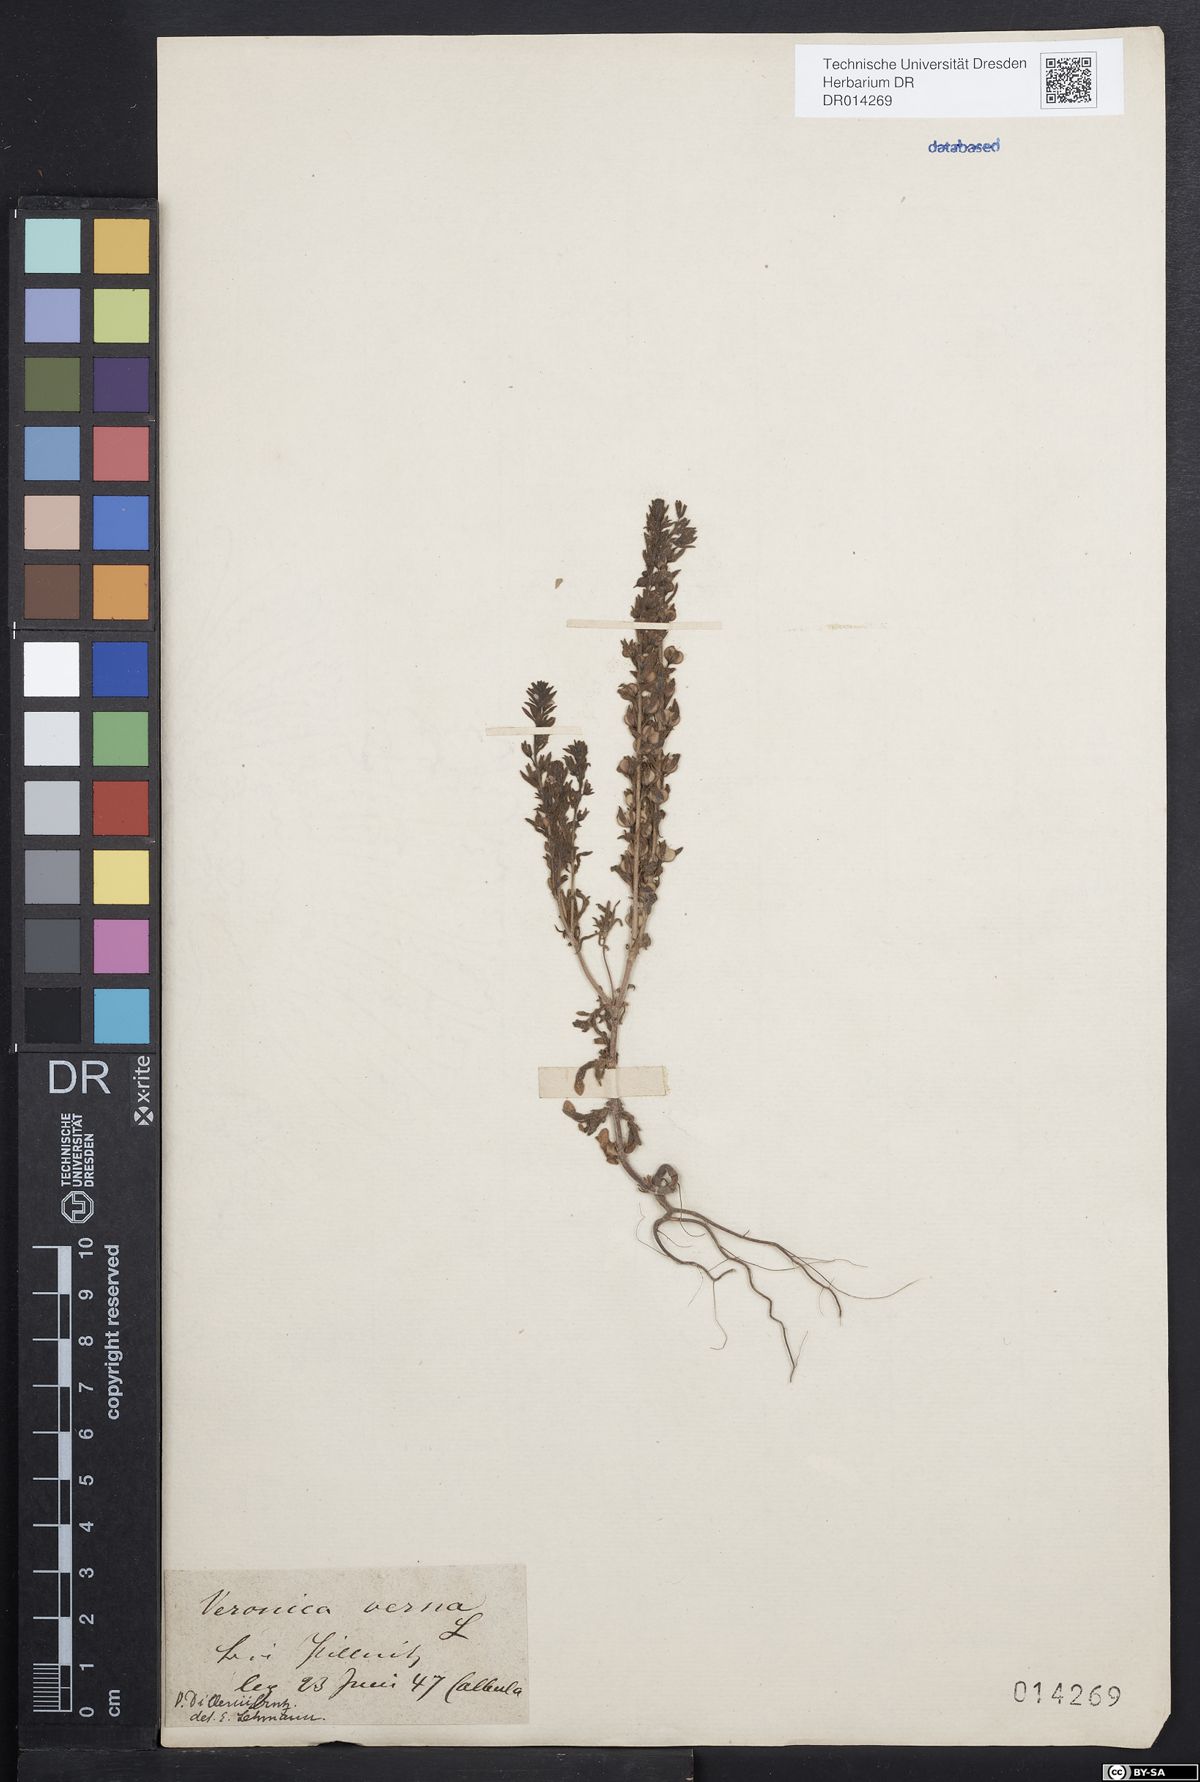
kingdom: Plantae
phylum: Tracheophyta
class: Magnoliopsida
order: Lamiales
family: Plantaginaceae
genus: Veronica
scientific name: Veronica dillenii
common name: Dillenius' speedwell
